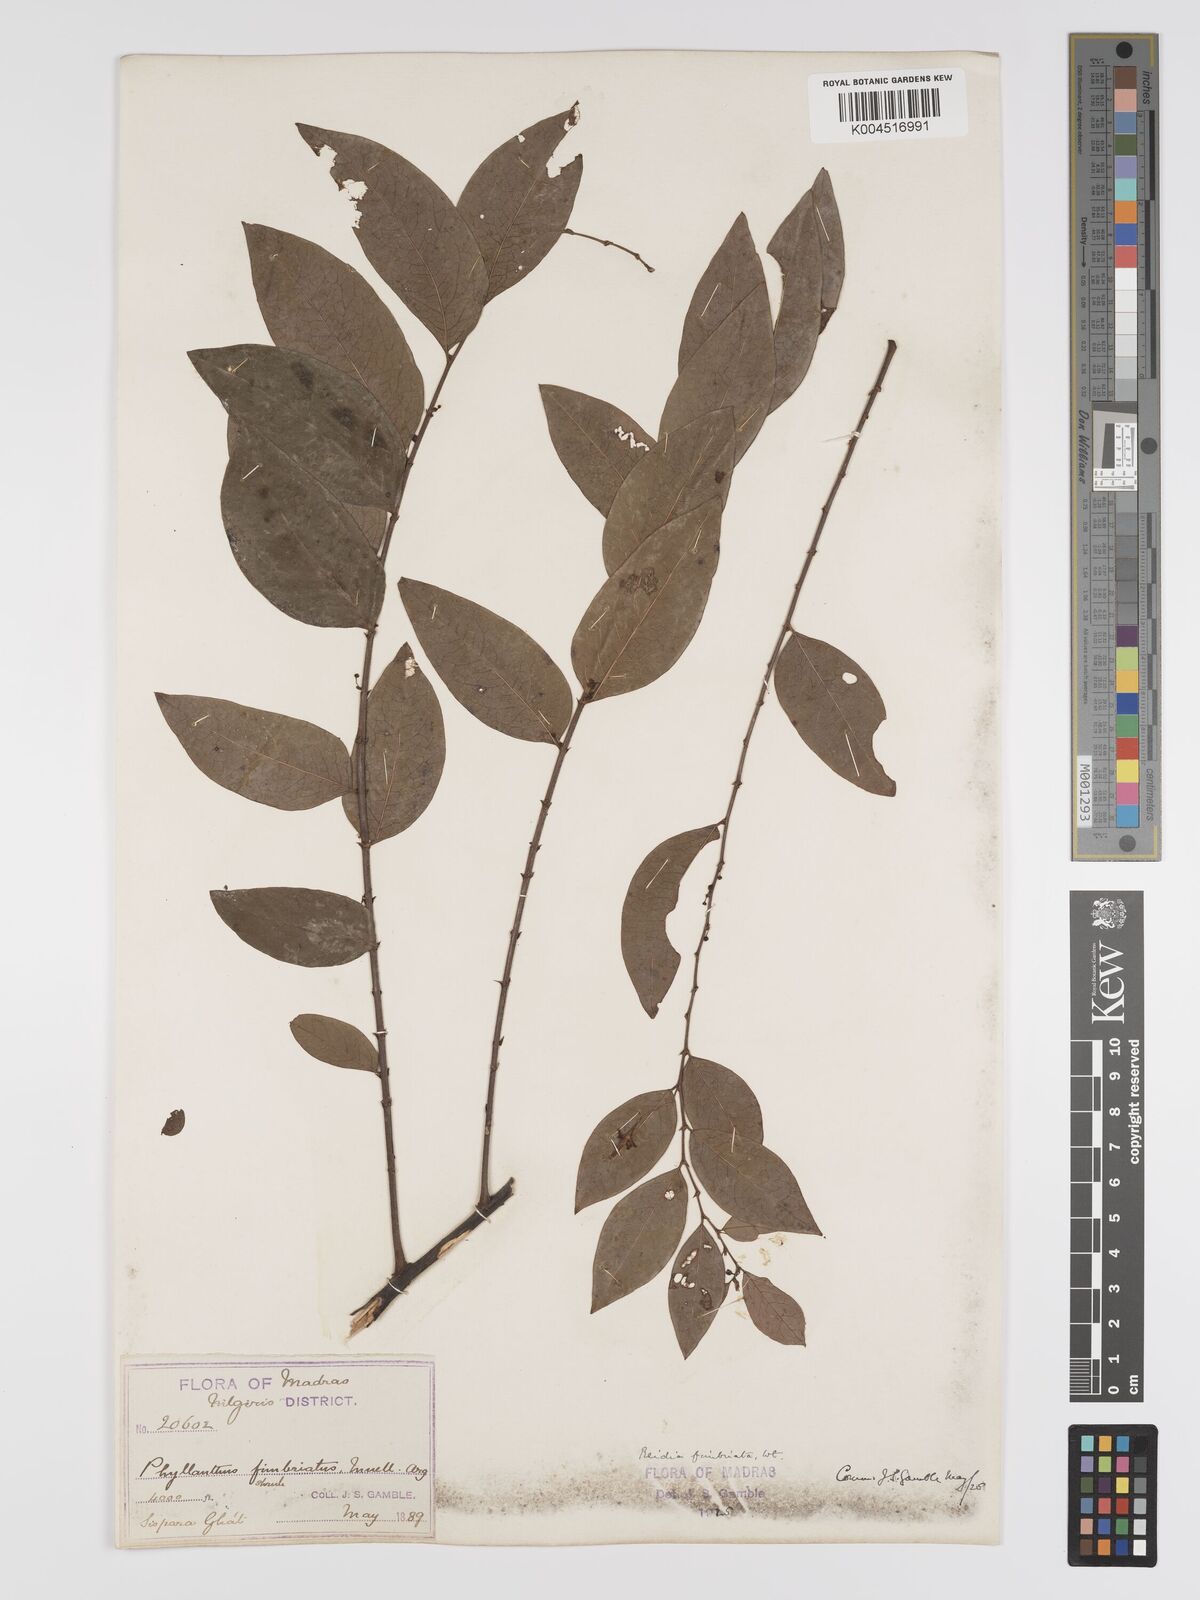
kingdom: Plantae
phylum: Tracheophyta
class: Magnoliopsida
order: Malpighiales
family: Phyllanthaceae
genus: Phyllanthus
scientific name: Phyllanthus fimbriatus
